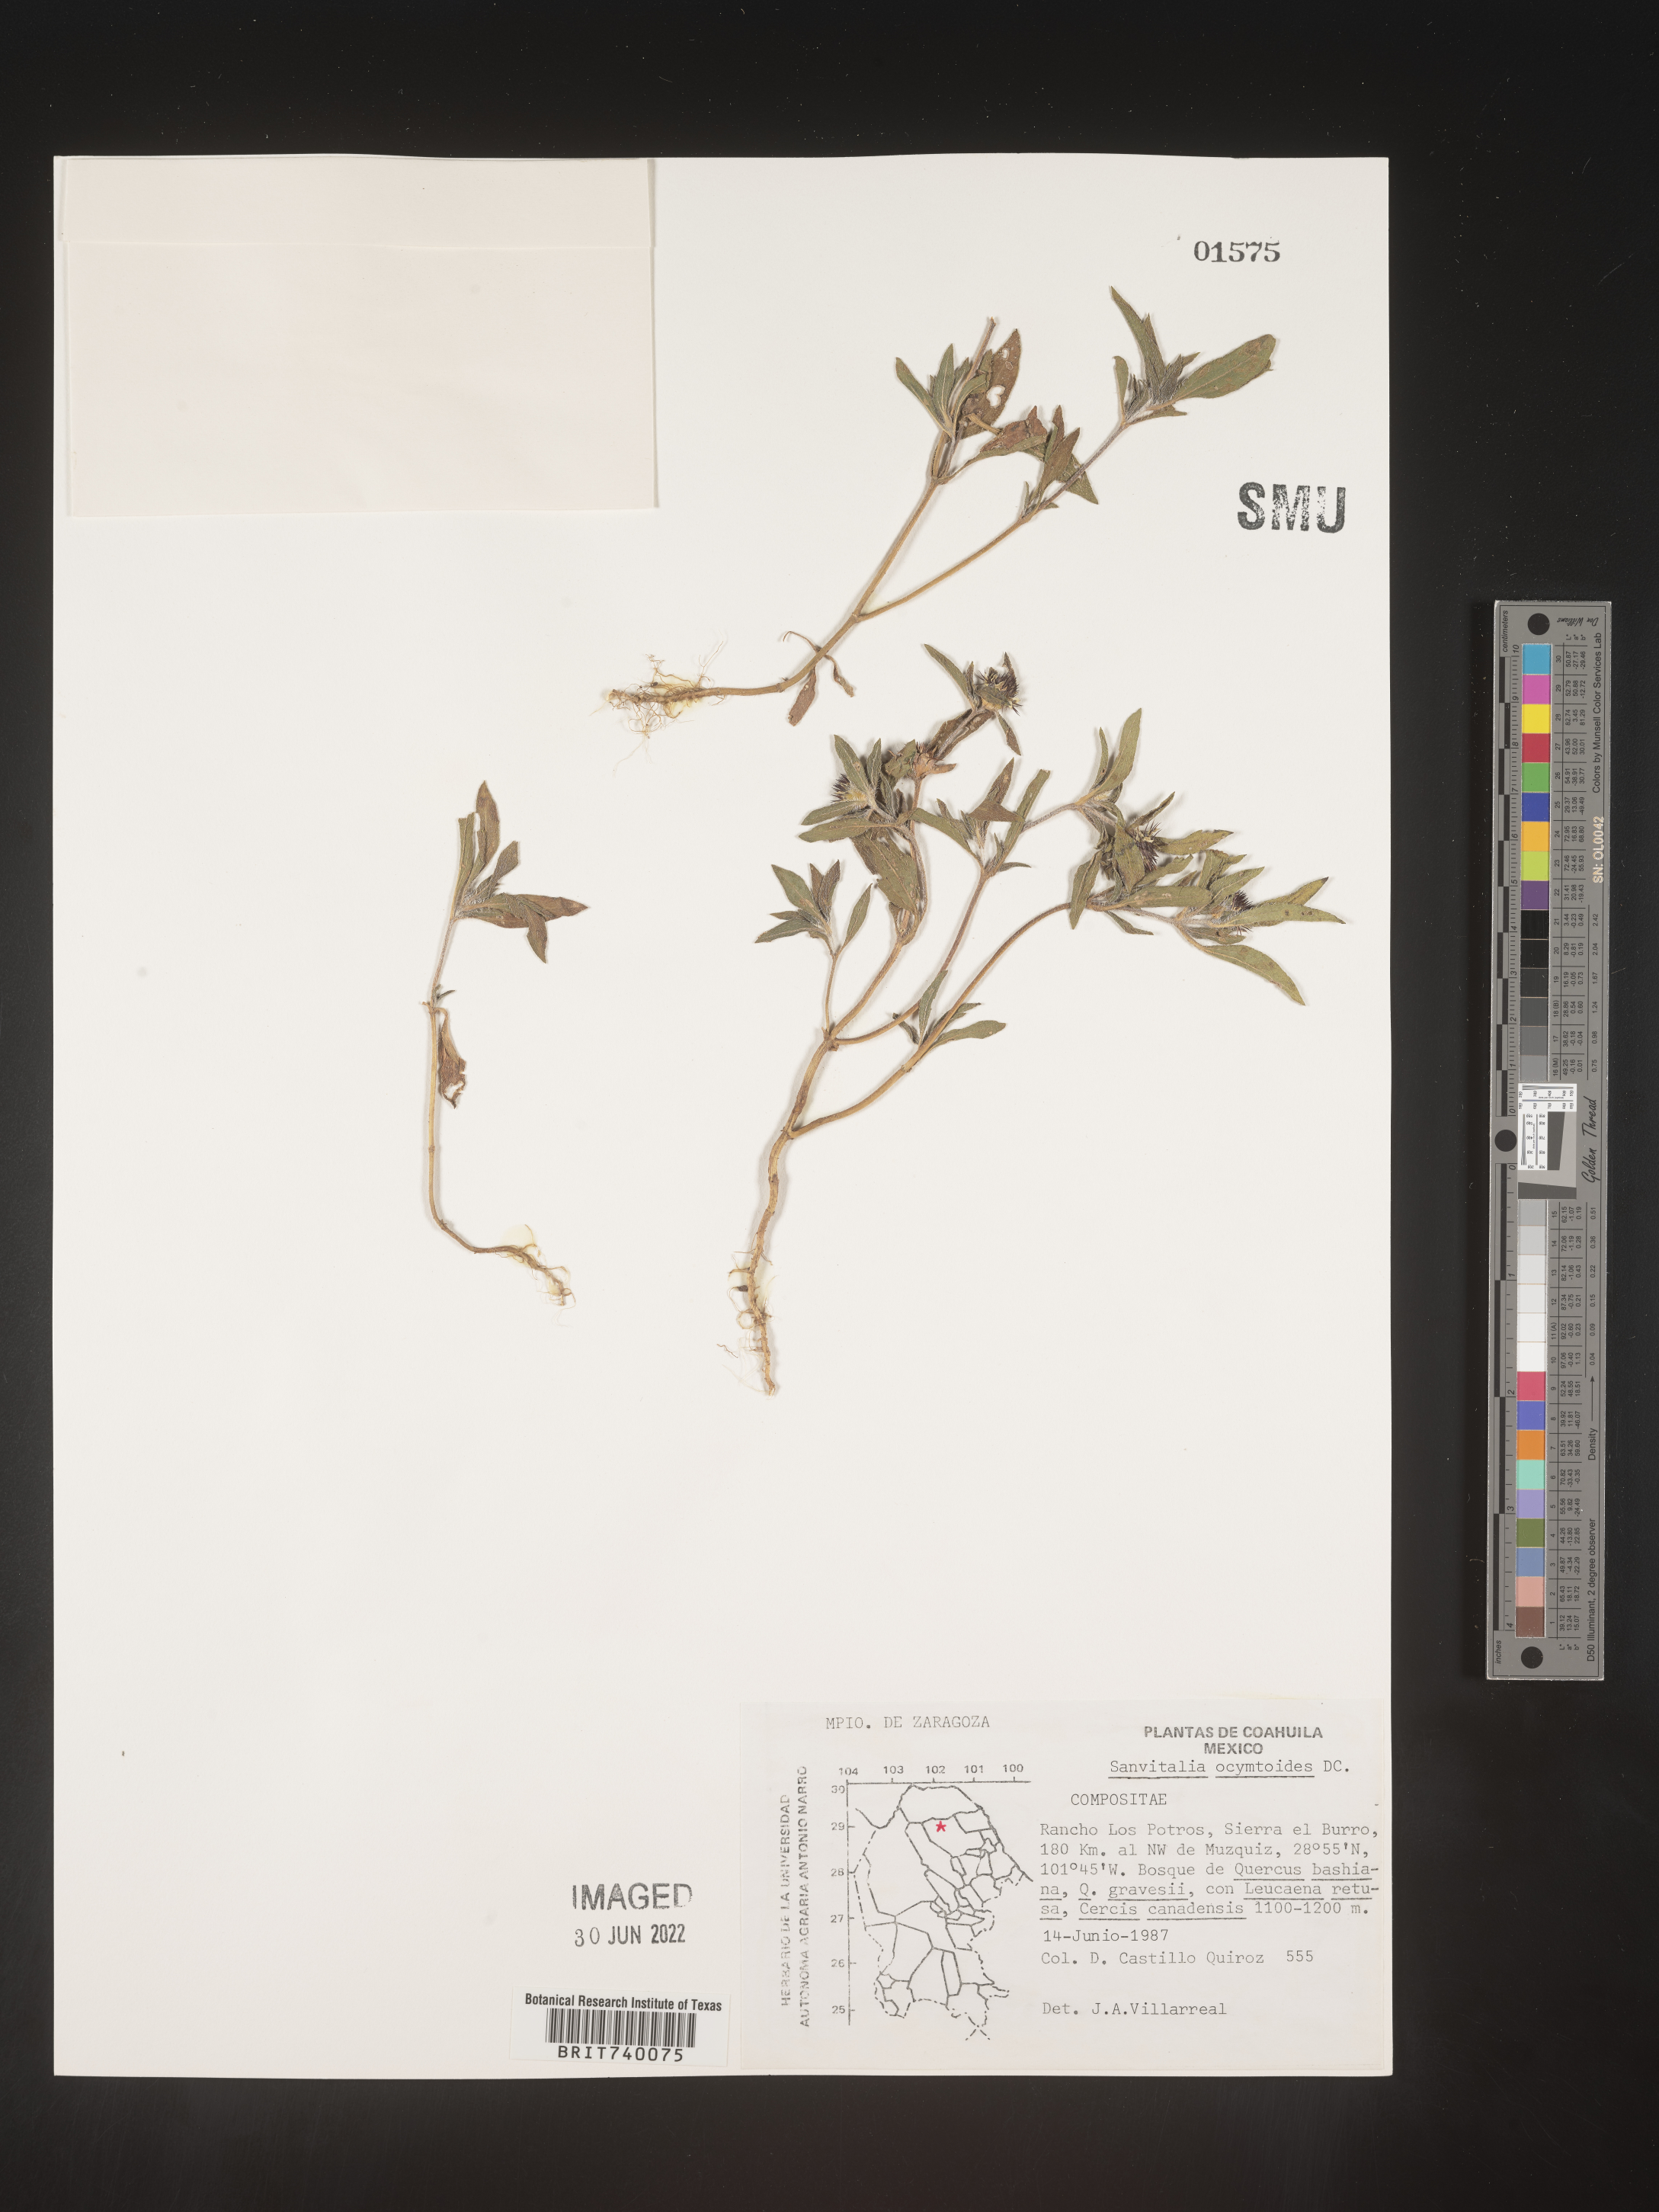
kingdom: Plantae
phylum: Tracheophyta
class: Magnoliopsida
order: Asterales
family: Asteraceae
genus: Sanvitalia
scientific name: Sanvitalia
